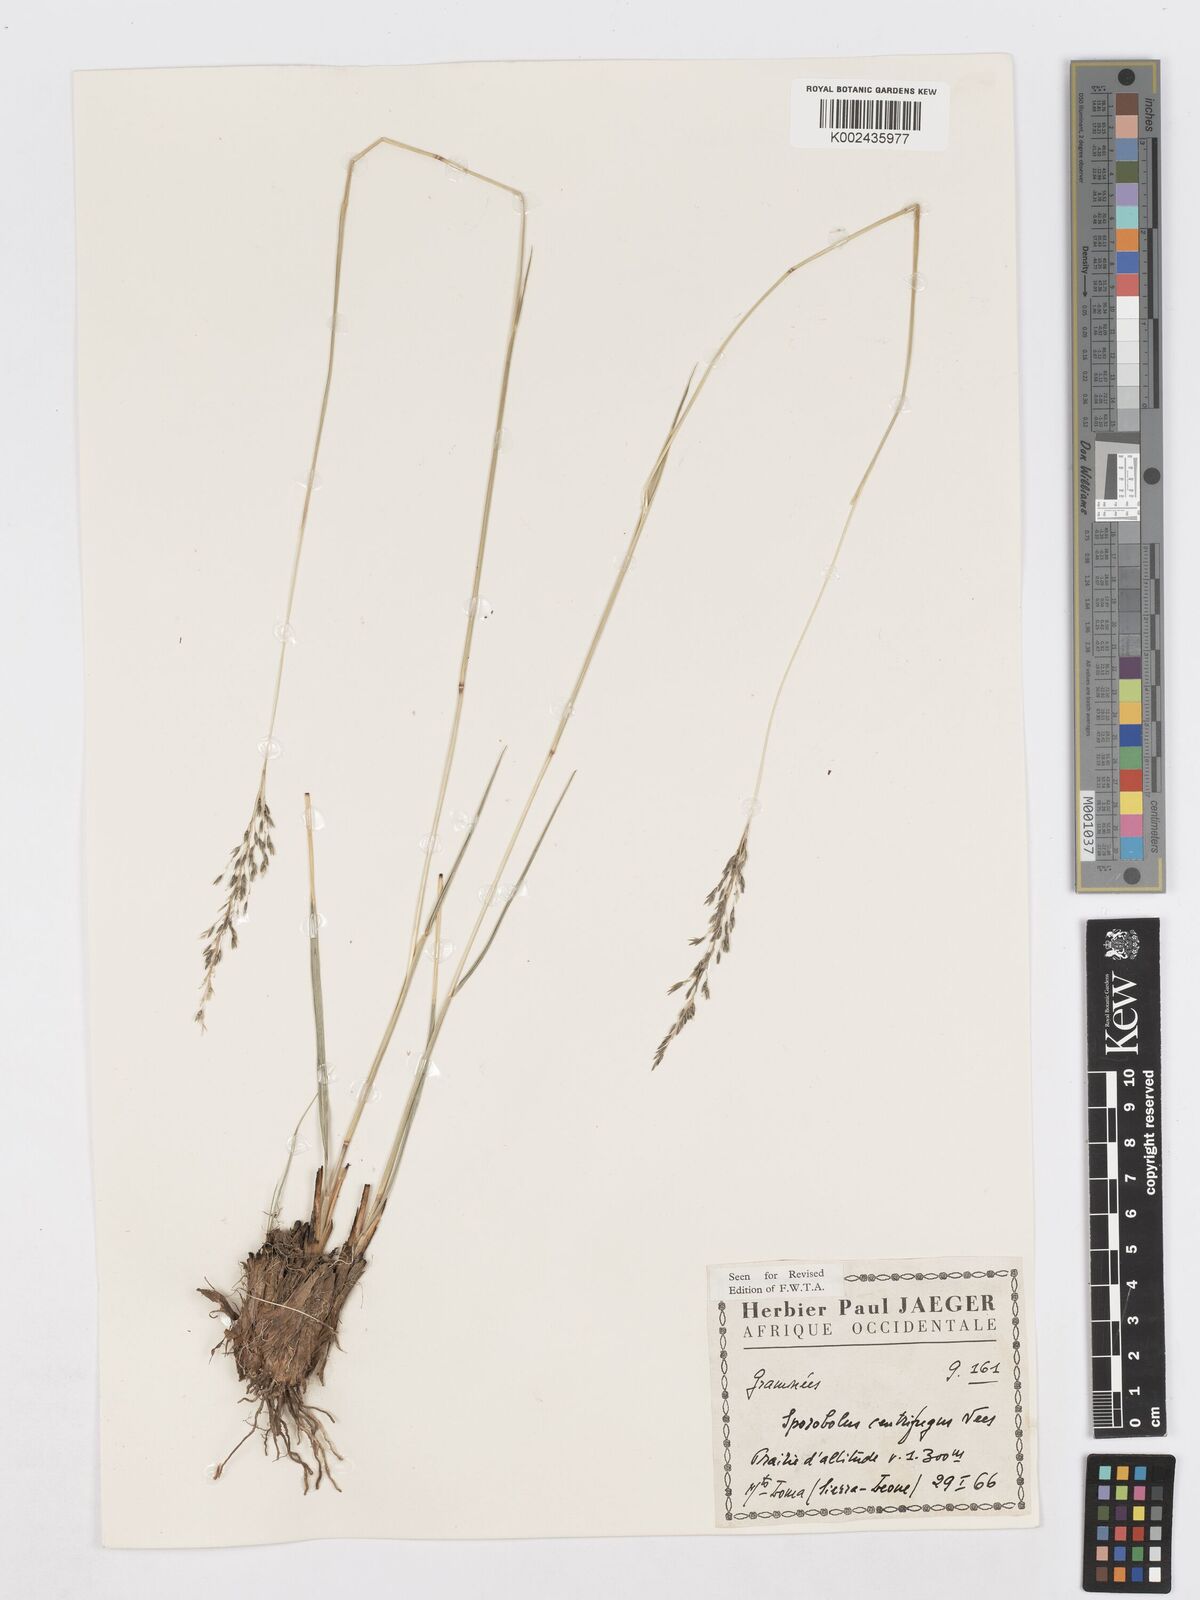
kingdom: Plantae
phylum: Tracheophyta
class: Liliopsida
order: Poales
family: Poaceae
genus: Sporobolus
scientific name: Sporobolus subulatus
